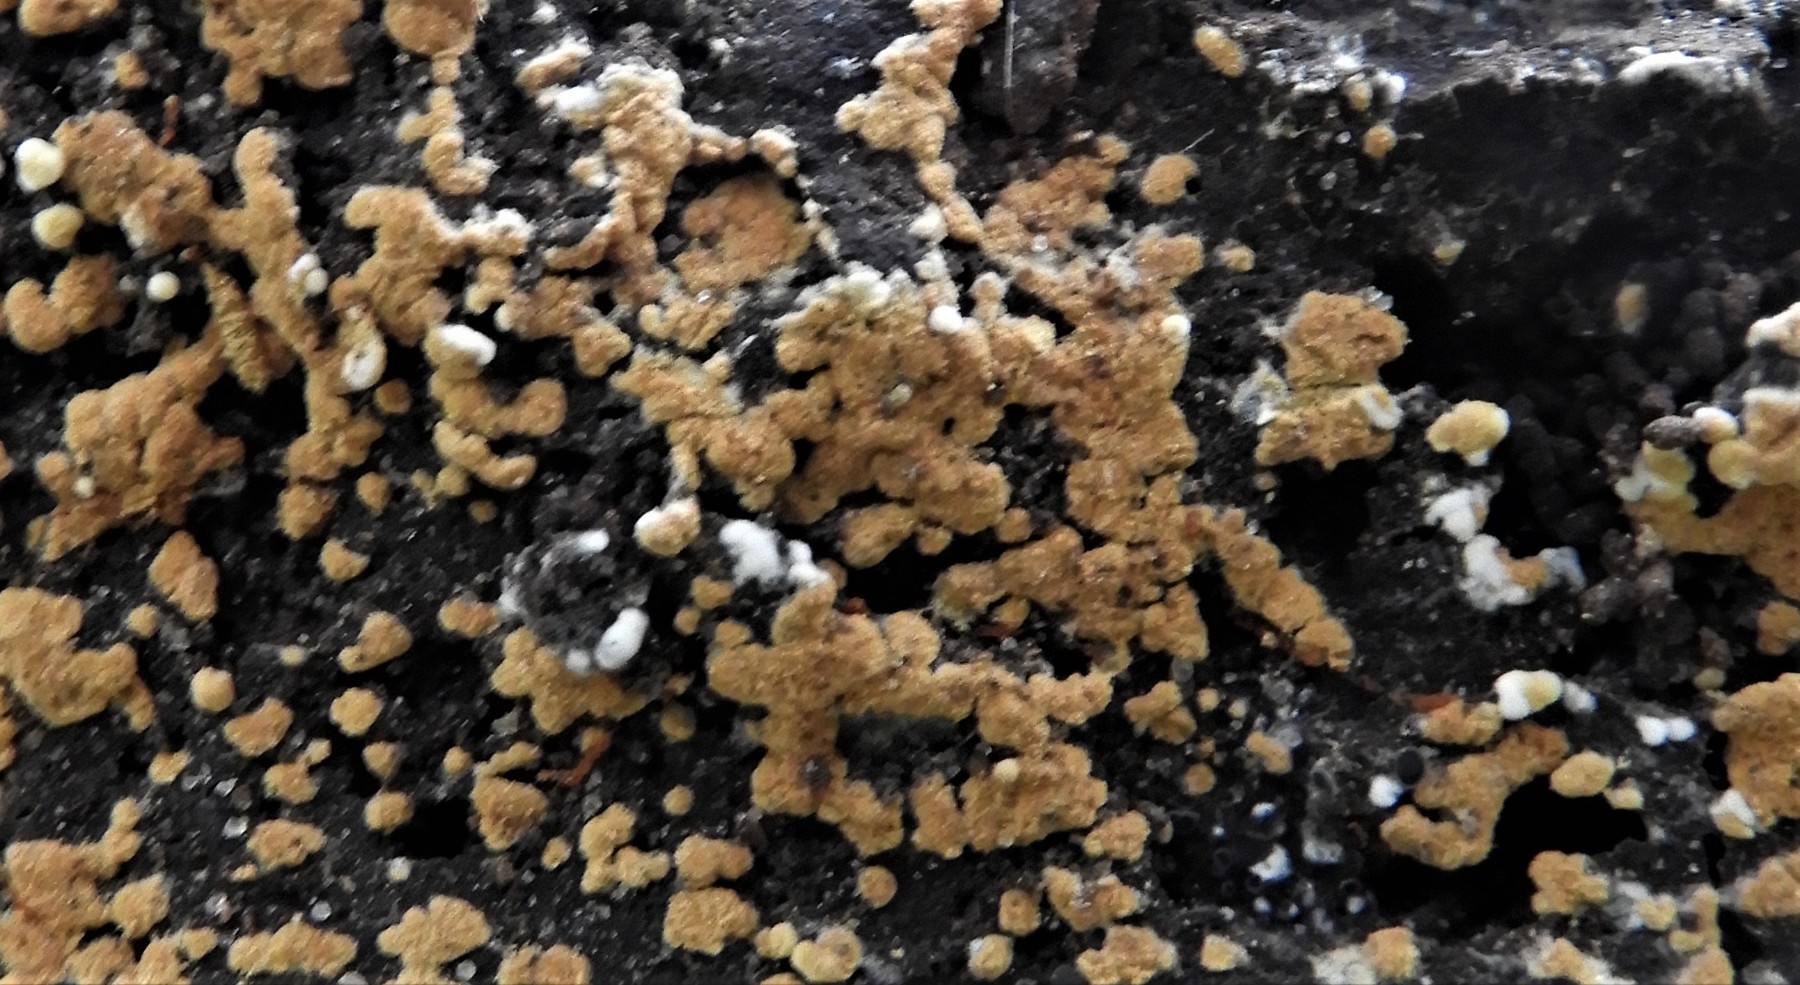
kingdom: Fungi
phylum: Basidiomycota
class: Agaricomycetes
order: Cantharellales
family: Botryobasidiaceae
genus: Botryobasidium
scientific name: Botryobasidium aureum
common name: gylden spindhinde
